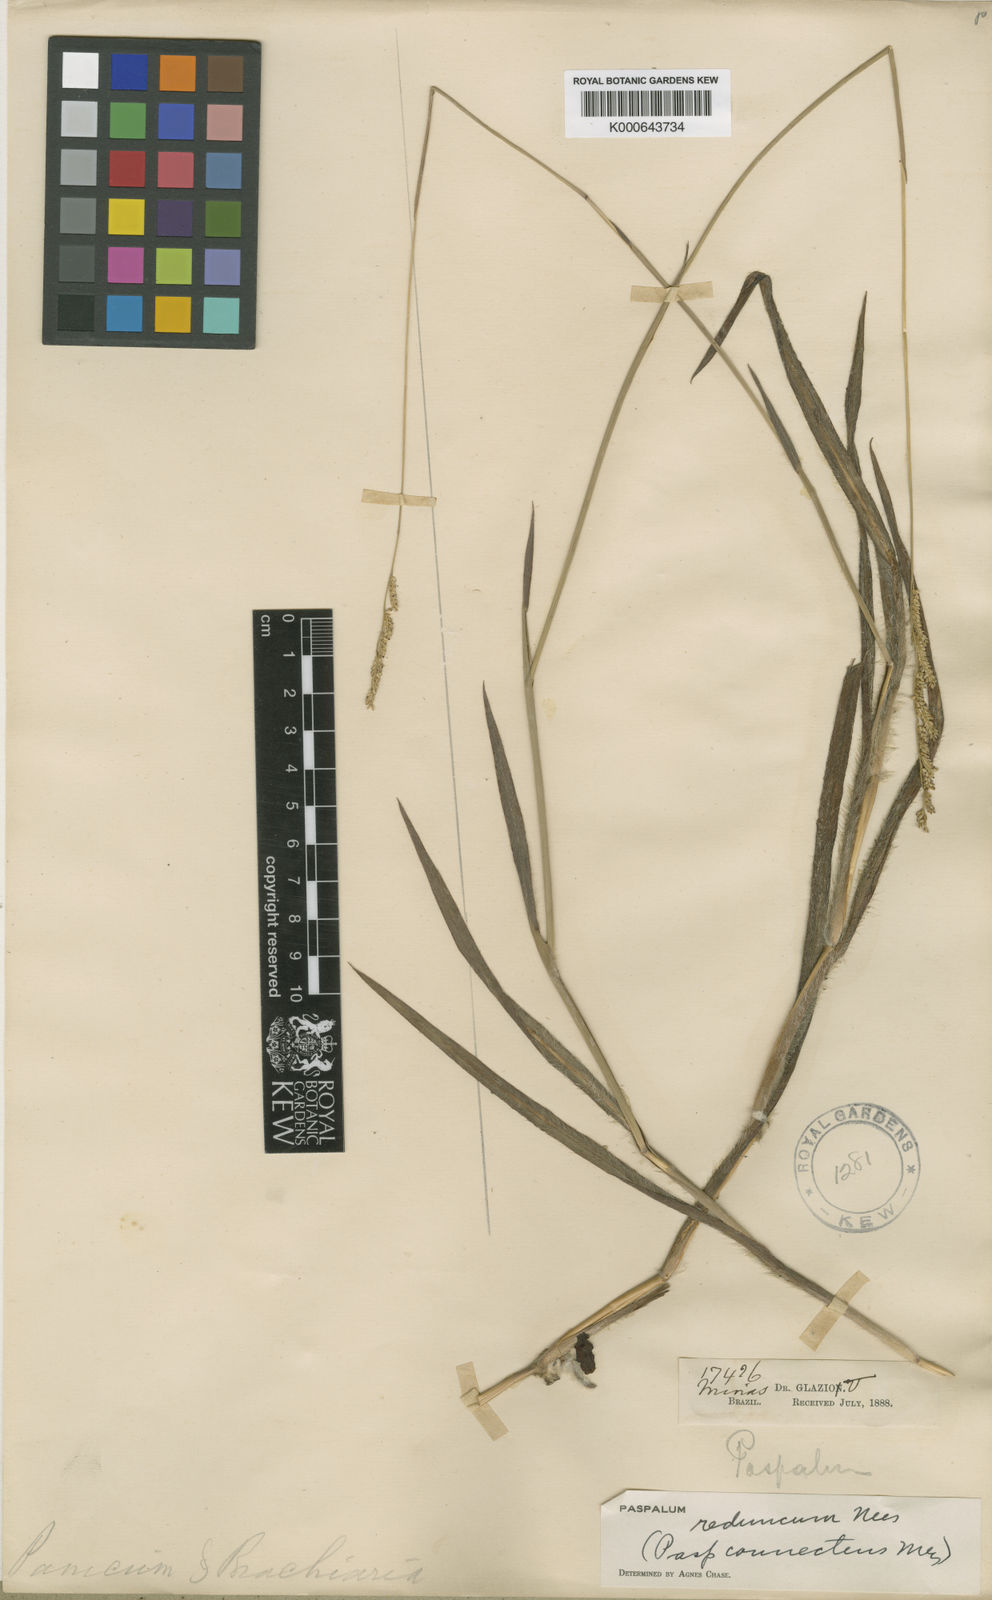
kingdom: Plantae
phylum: Tracheophyta
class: Liliopsida
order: Poales
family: Poaceae
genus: Paspalum
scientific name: Paspalum reduncum
